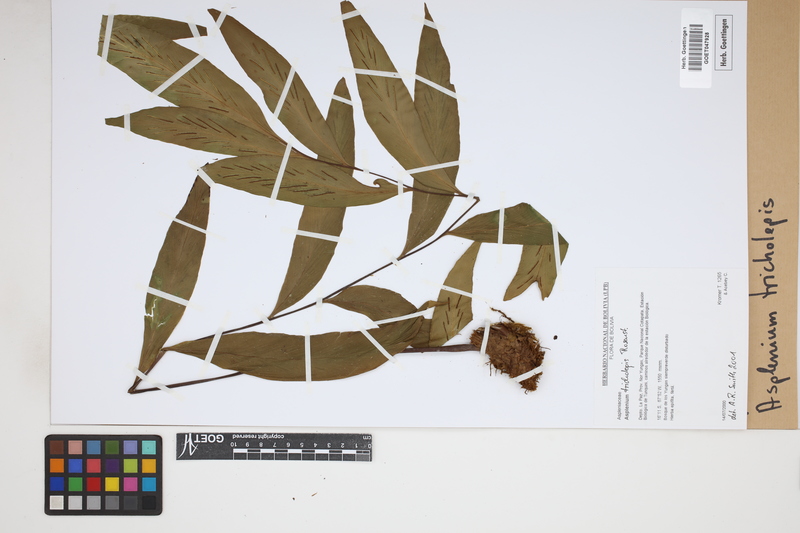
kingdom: Plantae
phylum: Tracheophyta
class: Polypodiopsida
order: Polypodiales
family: Aspleniaceae
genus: Asplenium
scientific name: Asplenium tricholepis
